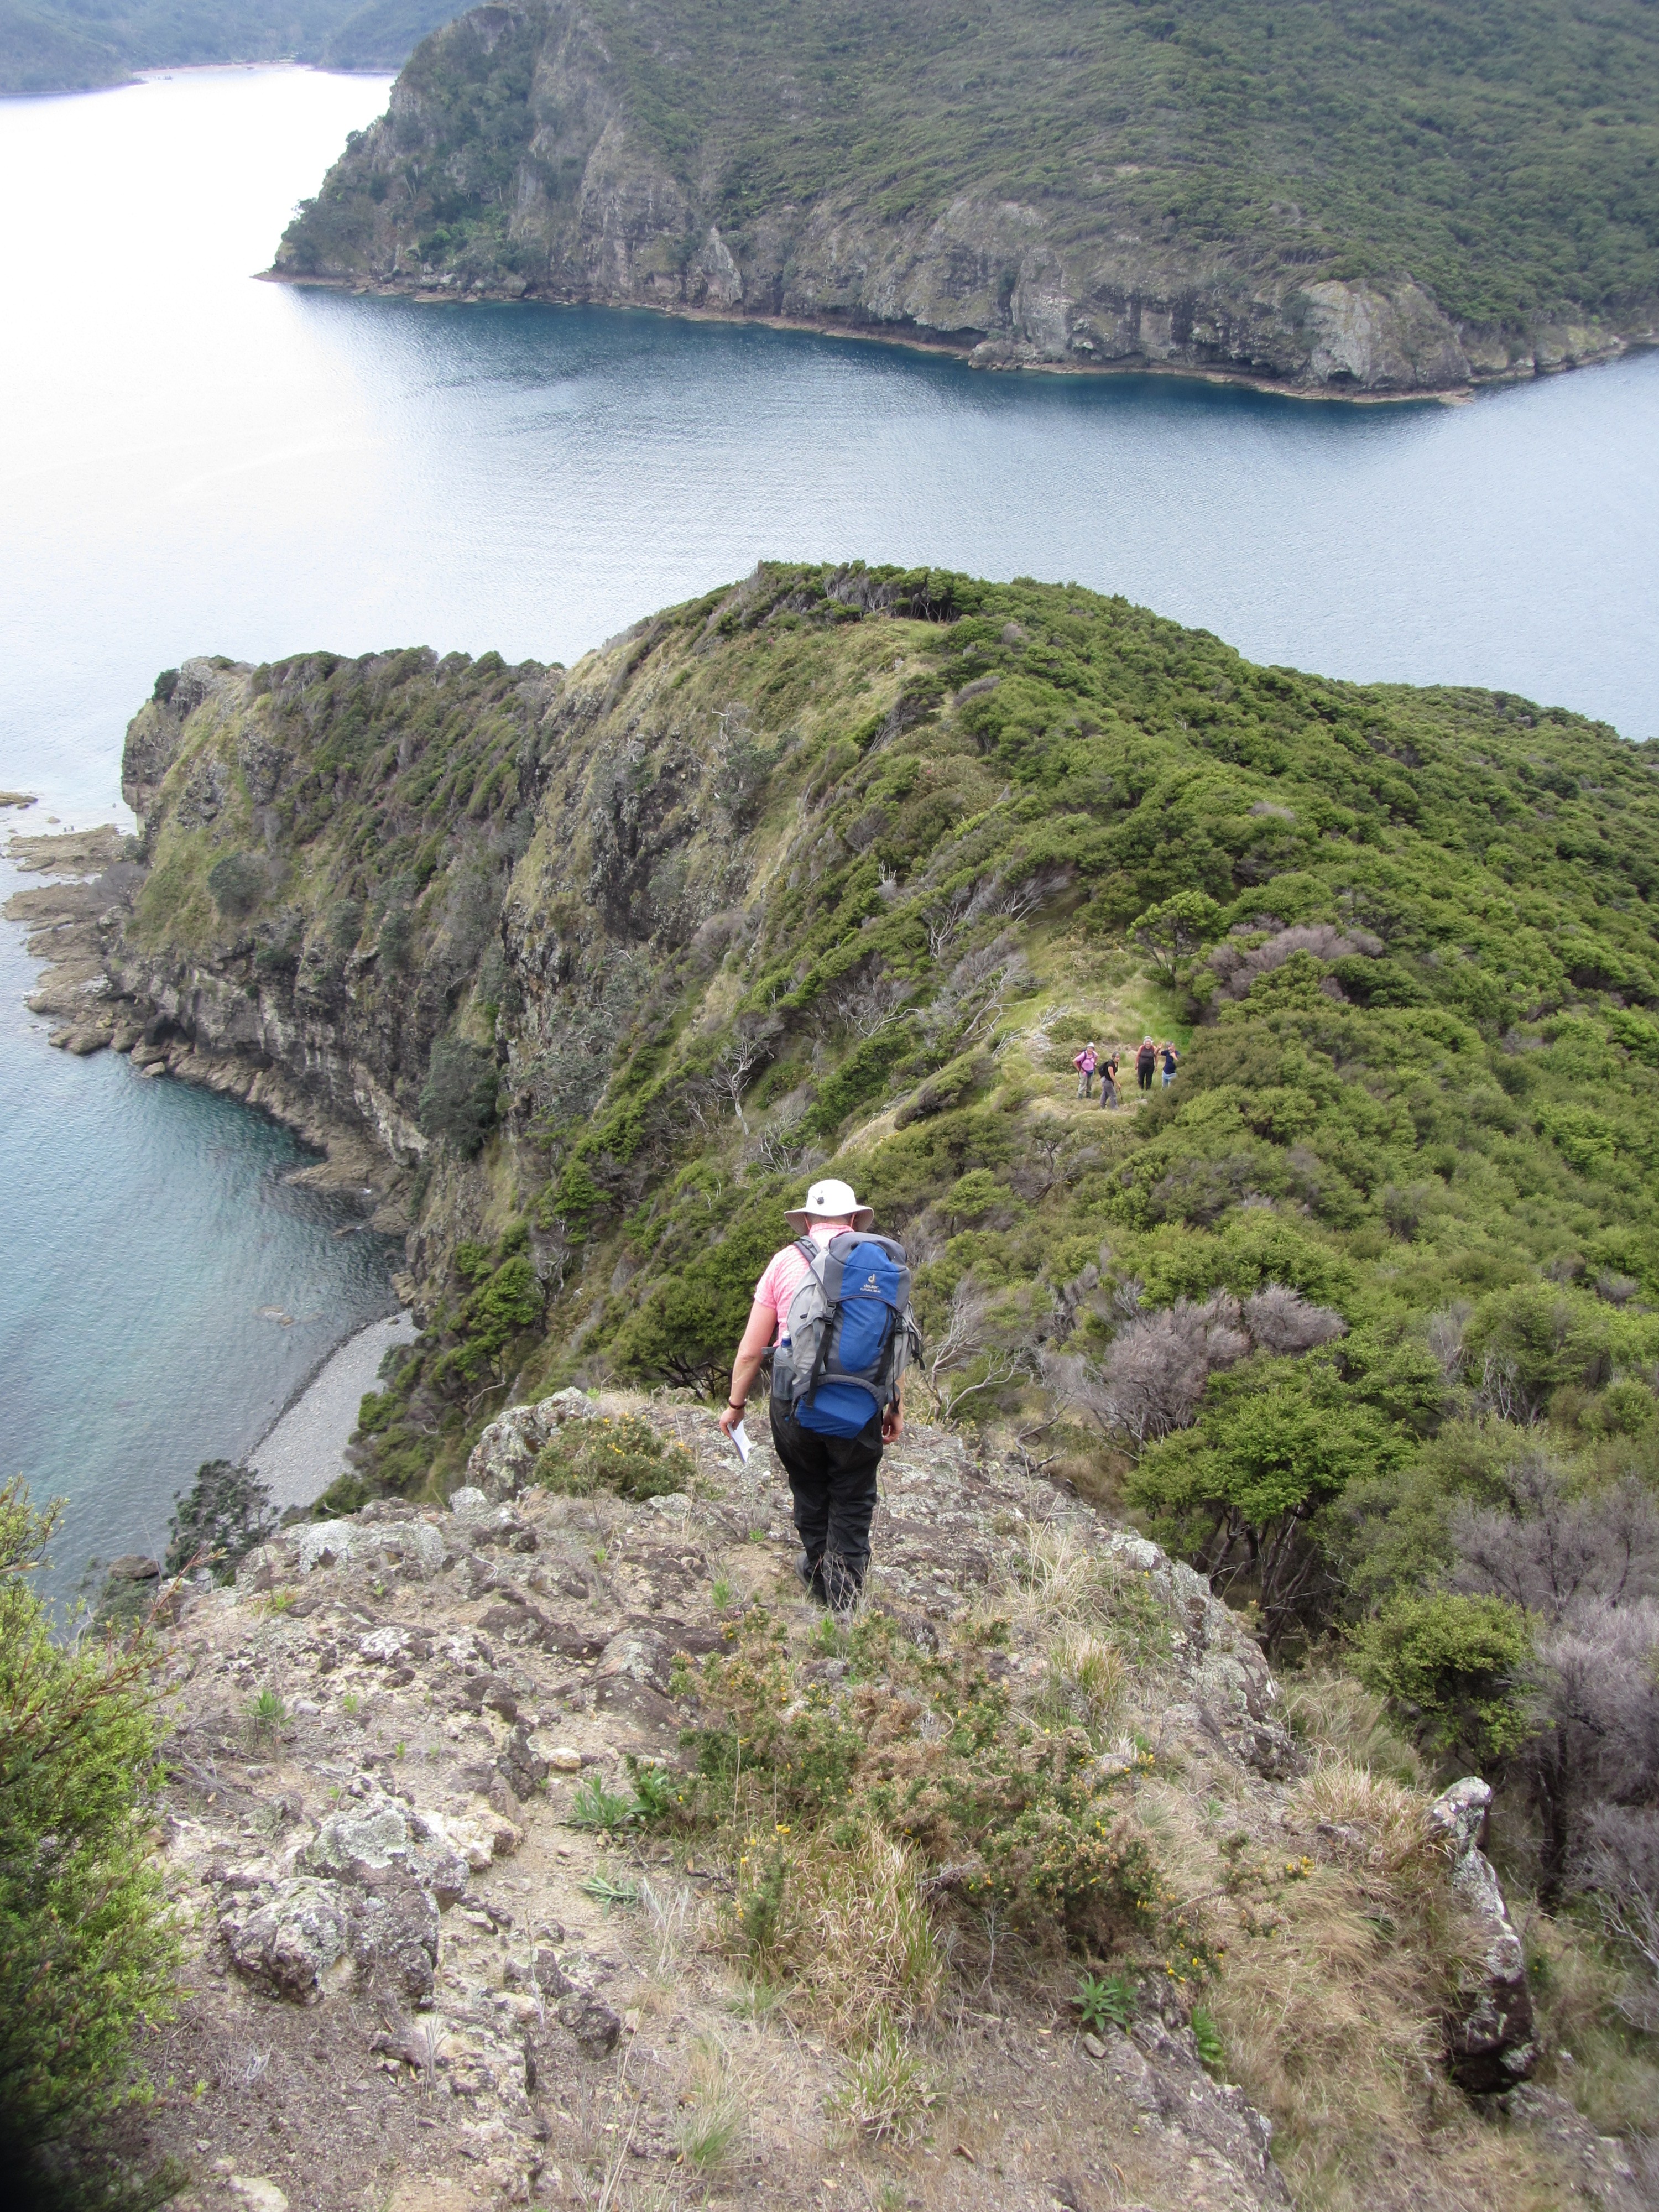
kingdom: Plantae
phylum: Tracheophyta
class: Magnoliopsida
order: Asterales
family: Asteraceae
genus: Facelis
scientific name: Facelis retusa
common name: Annual trampweed
